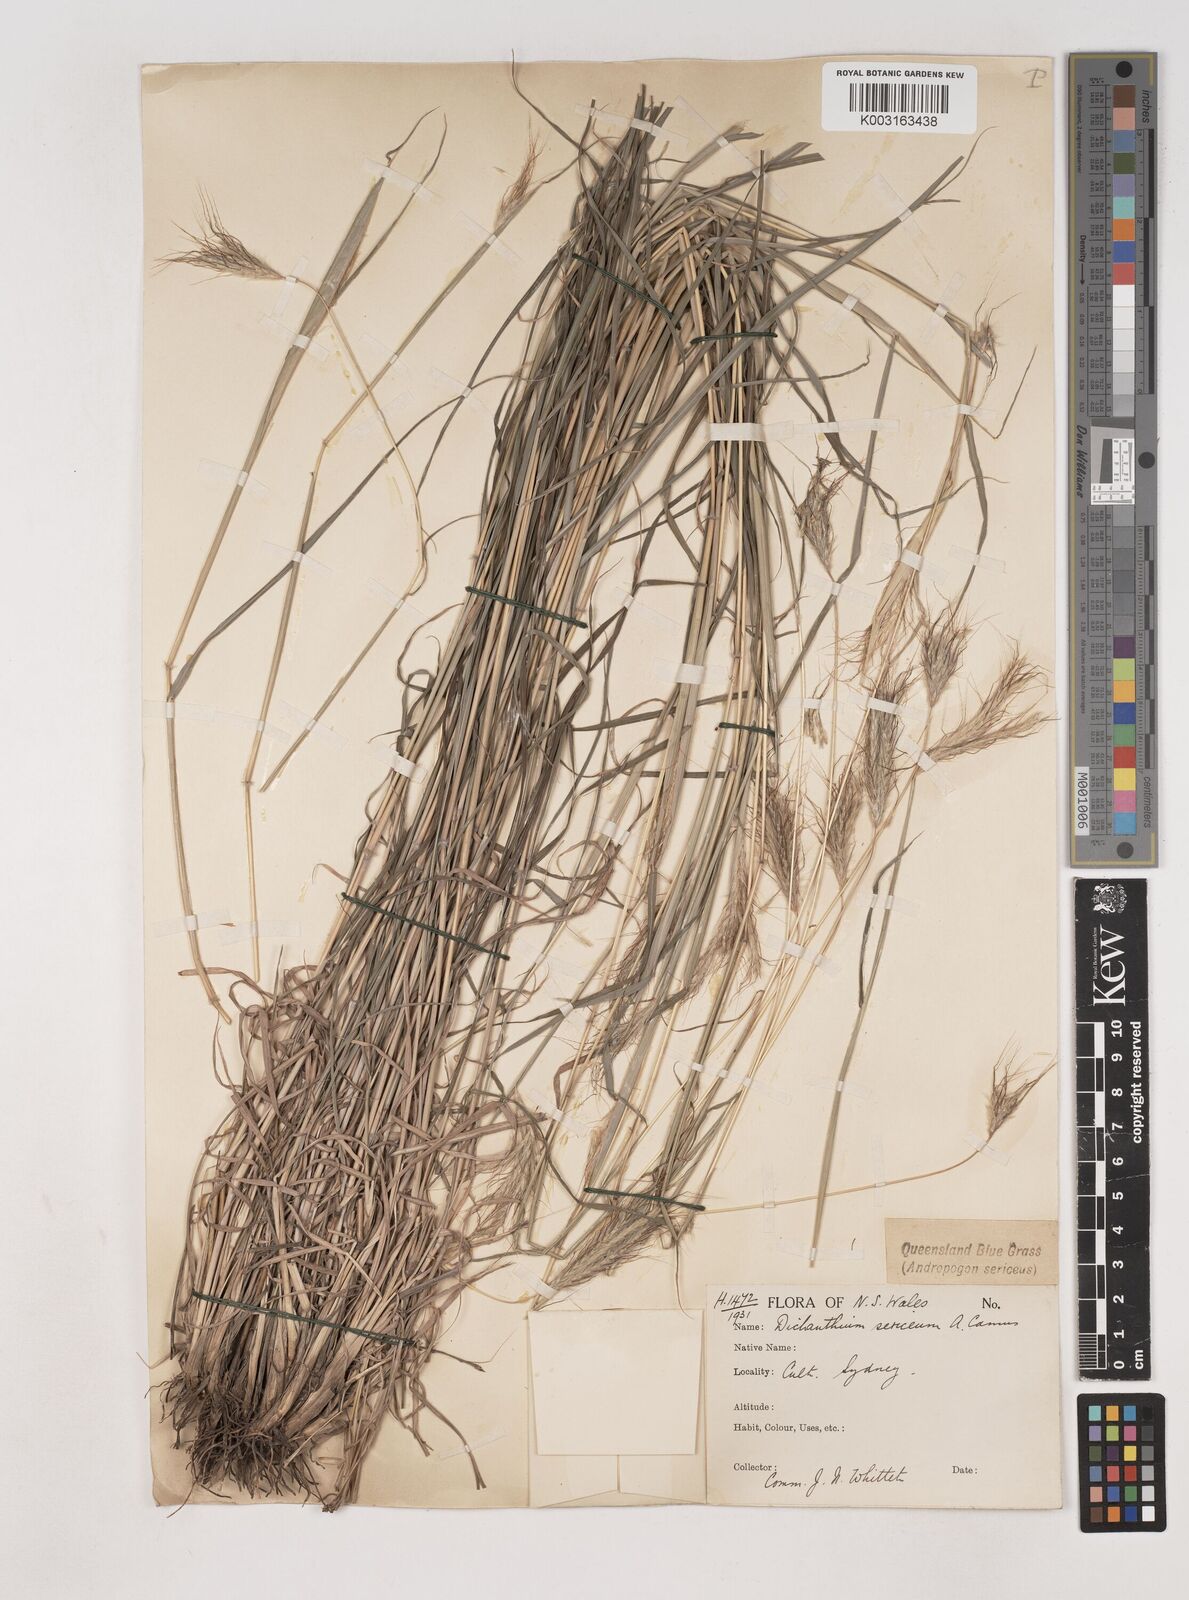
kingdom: Plantae
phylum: Tracheophyta
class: Liliopsida
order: Poales
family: Poaceae
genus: Dichanthium
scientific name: Dichanthium sericeum
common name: Silky bluestem
